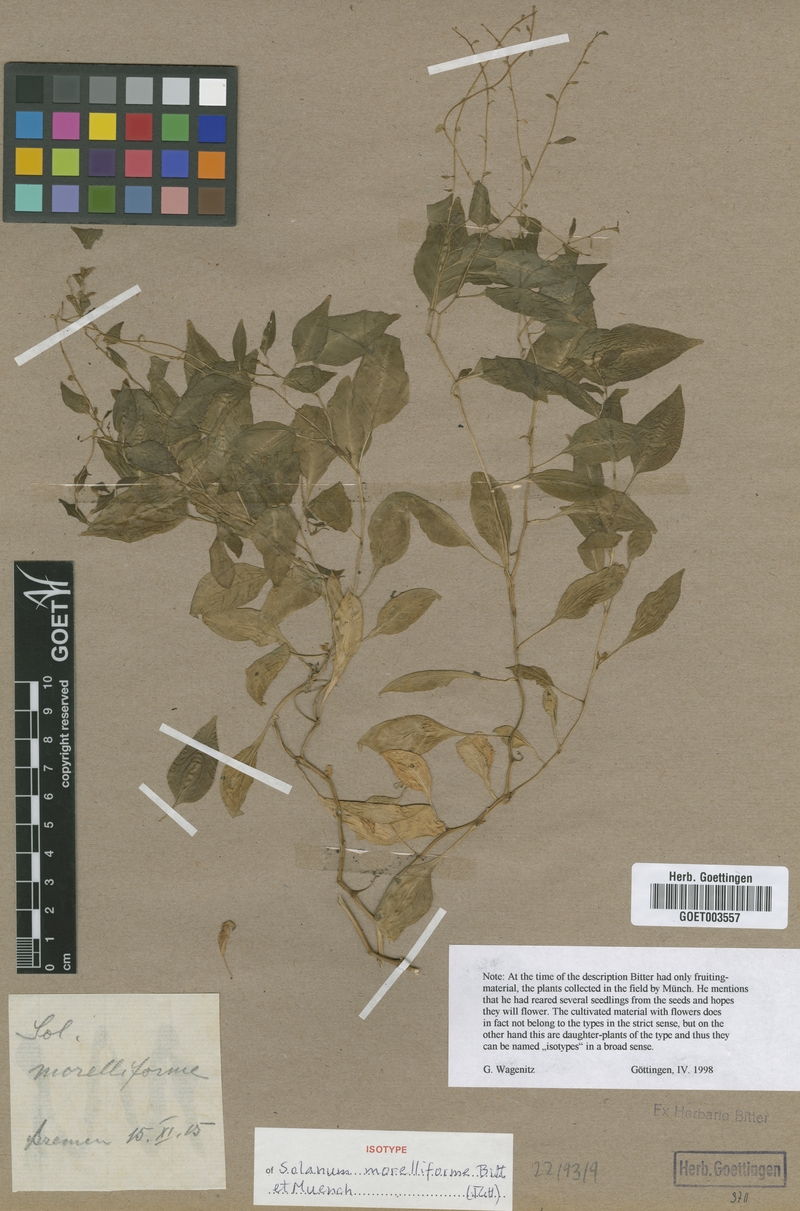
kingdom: Plantae
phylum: Tracheophyta
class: Magnoliopsida
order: Solanales
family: Solanaceae
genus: Solanum
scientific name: Solanum morelliforme
